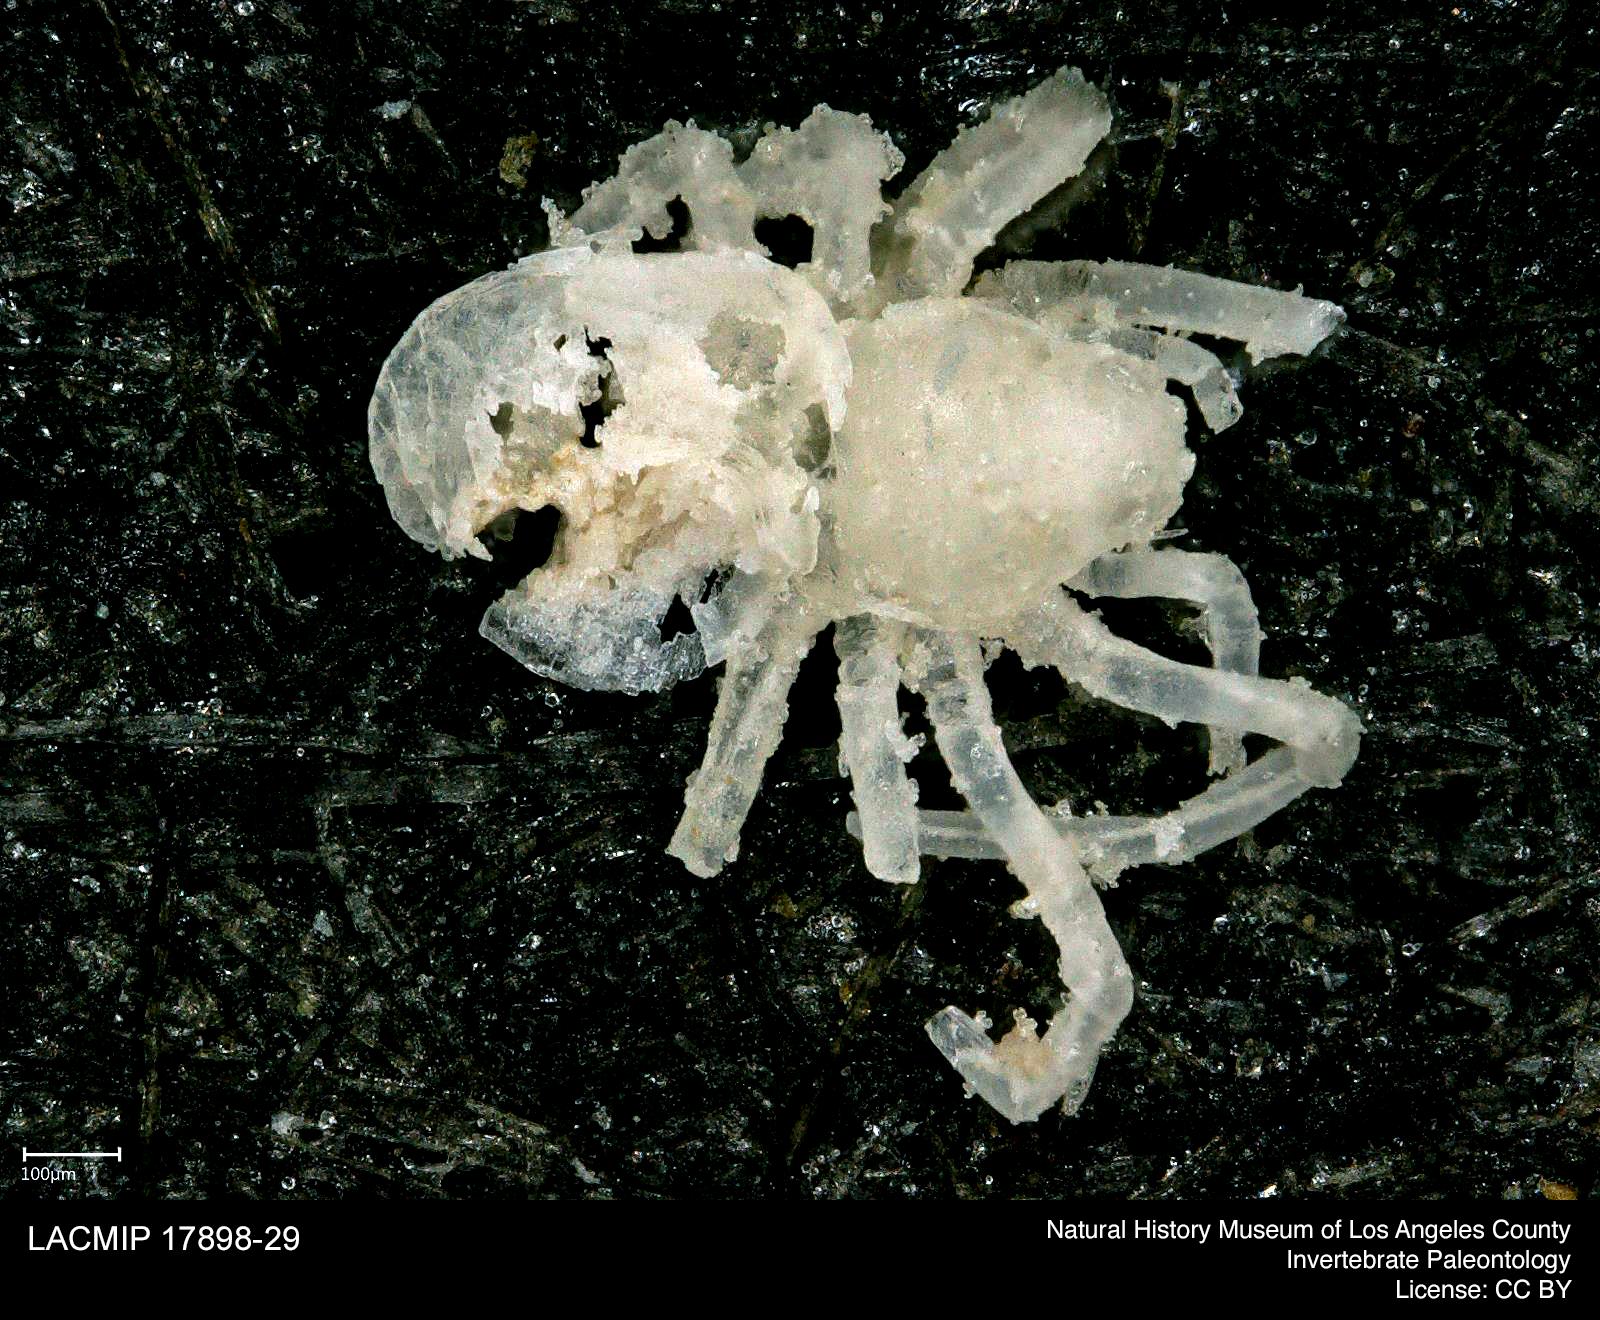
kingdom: Animalia
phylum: Arthropoda
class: Arachnida
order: Araneae
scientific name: Araneae
